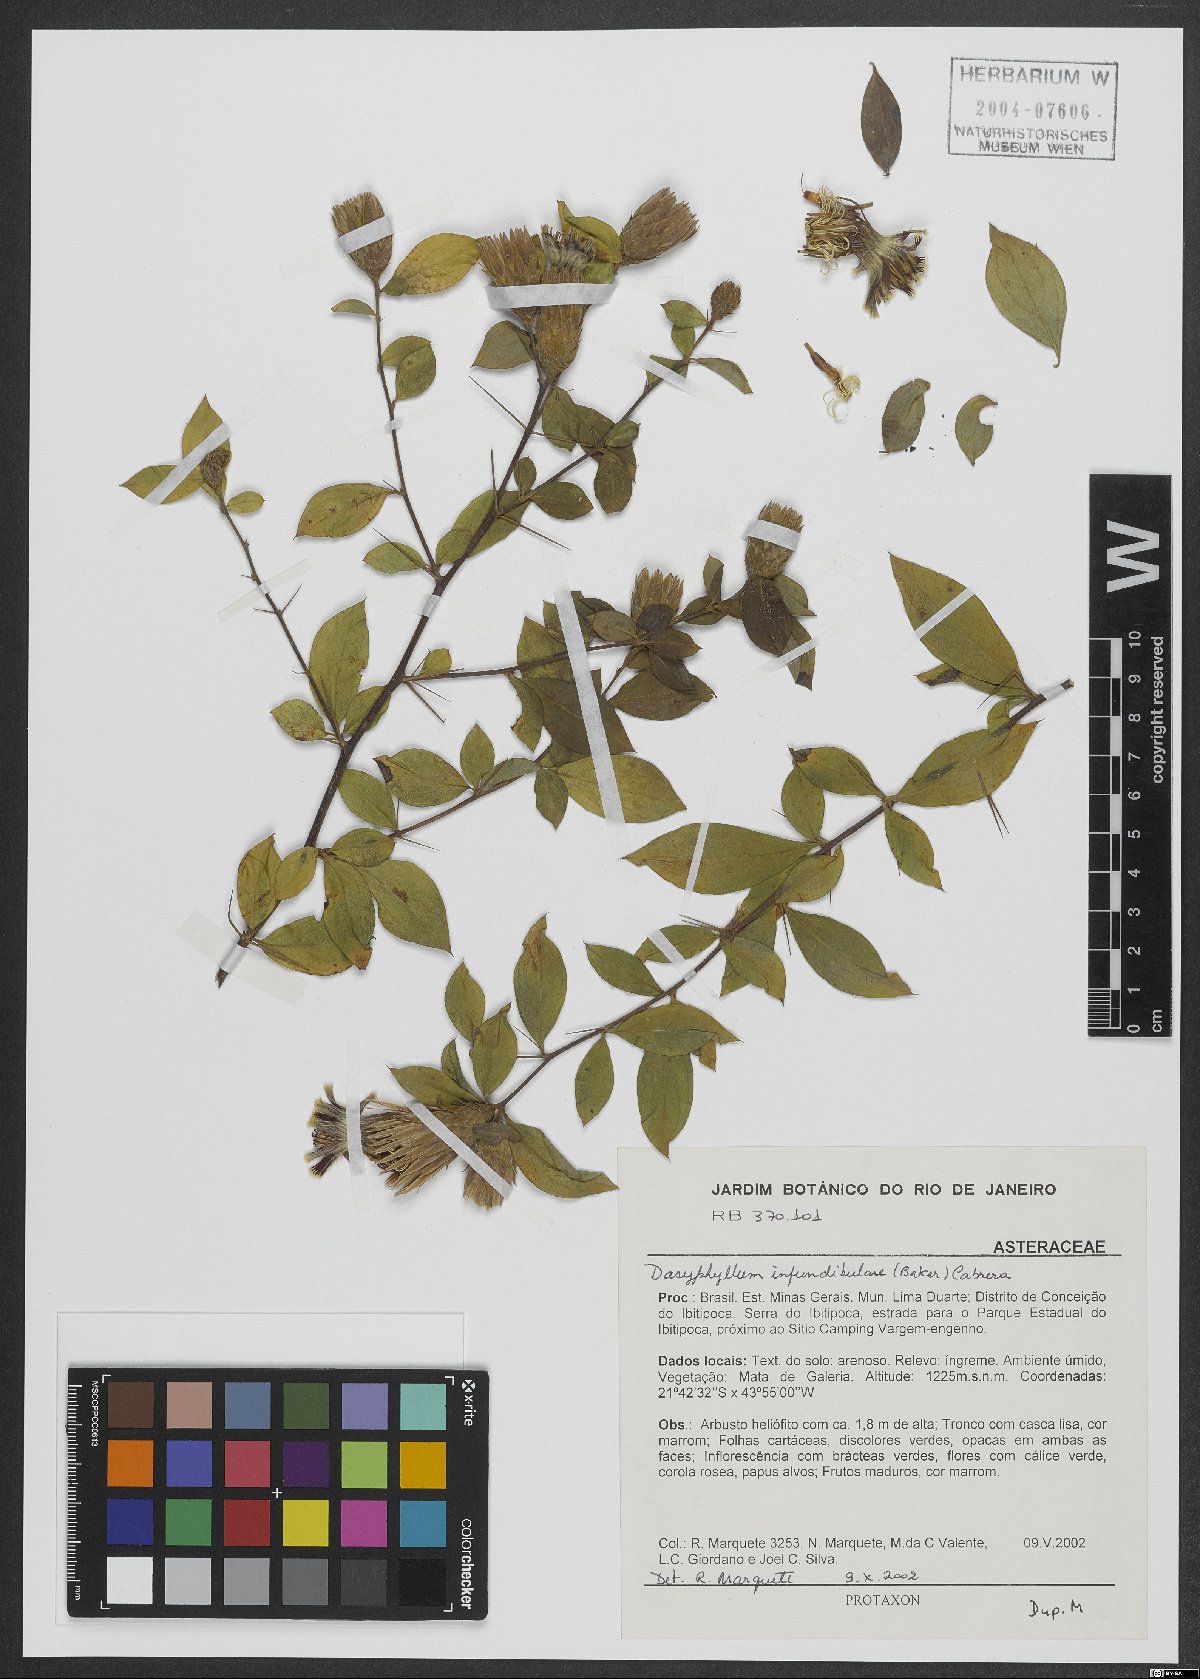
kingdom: Plantae
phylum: Tracheophyta
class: Magnoliopsida
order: Asterales
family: Asteraceae
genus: Dasyphyllum
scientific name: Dasyphyllum donianum
